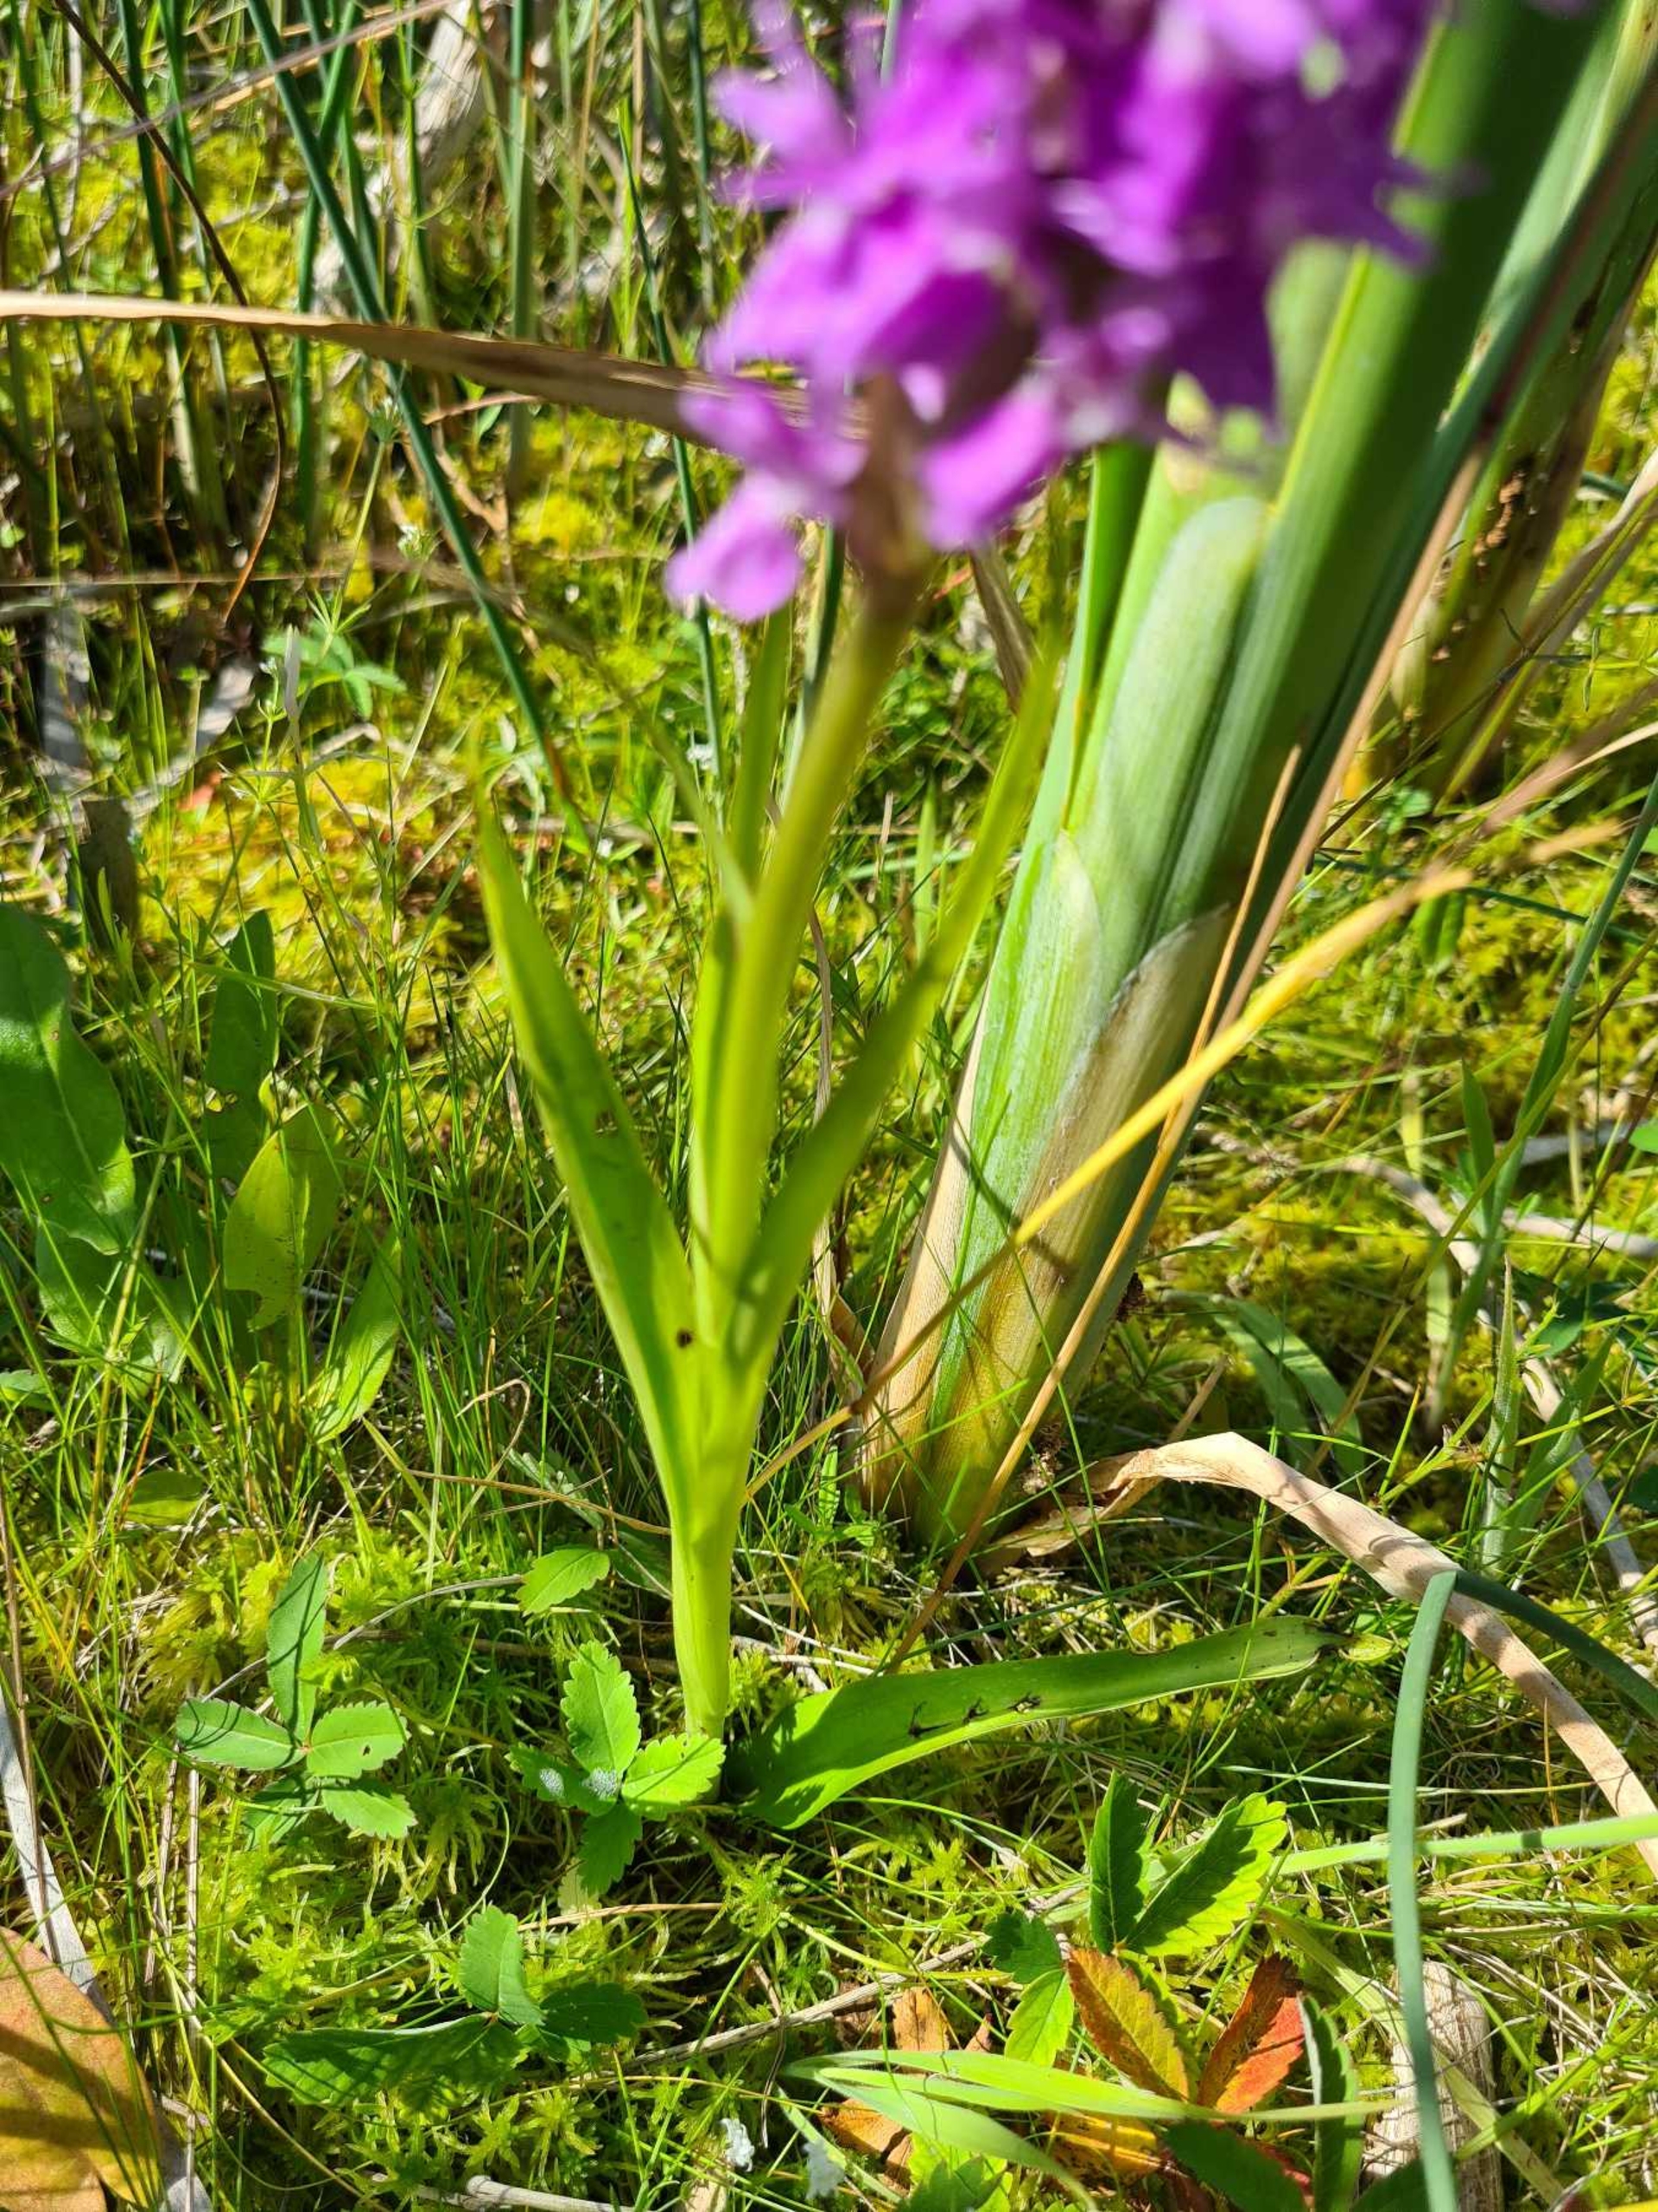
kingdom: Plantae
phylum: Tracheophyta
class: Liliopsida
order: Asparagales
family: Orchidaceae
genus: Dactylorhiza
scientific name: Dactylorhiza majalis
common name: Priklæbet gøgeurt
